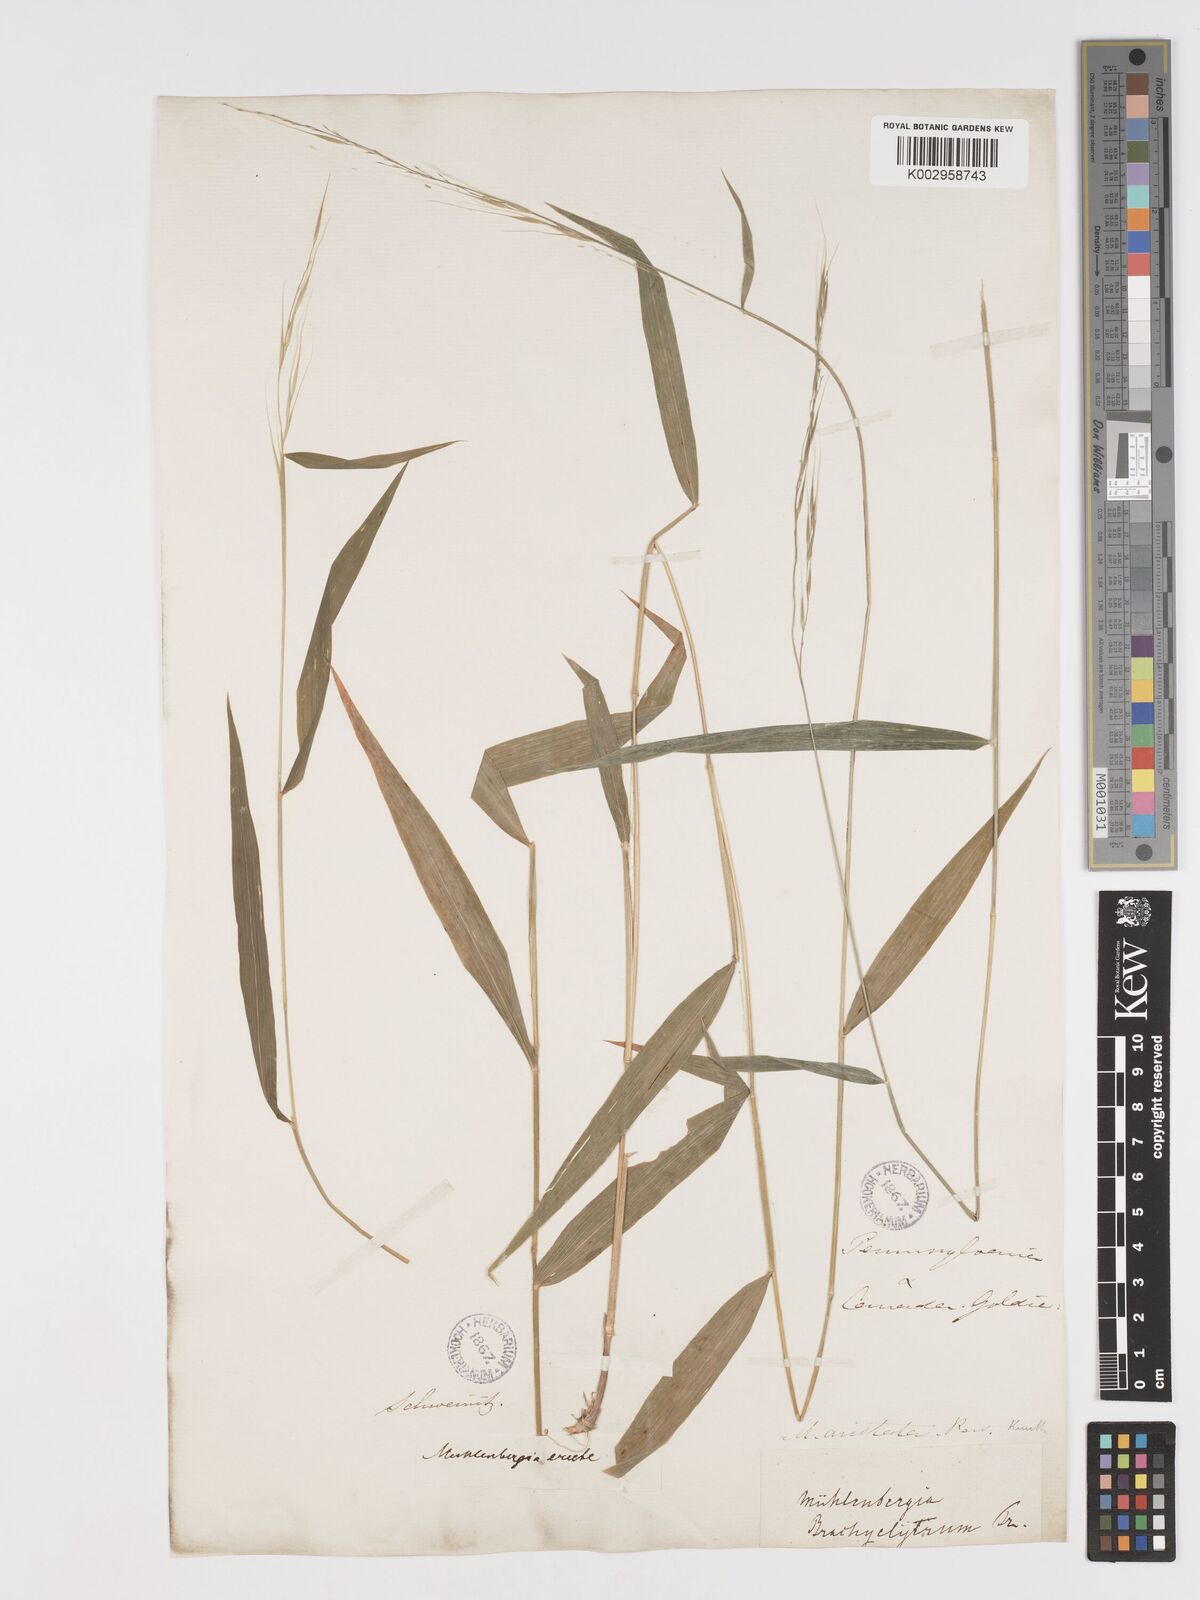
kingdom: Plantae
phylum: Tracheophyta
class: Liliopsida
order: Poales
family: Poaceae
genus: Brachyelytrum
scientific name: Brachyelytrum erectum
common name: Bearded shorthusk
